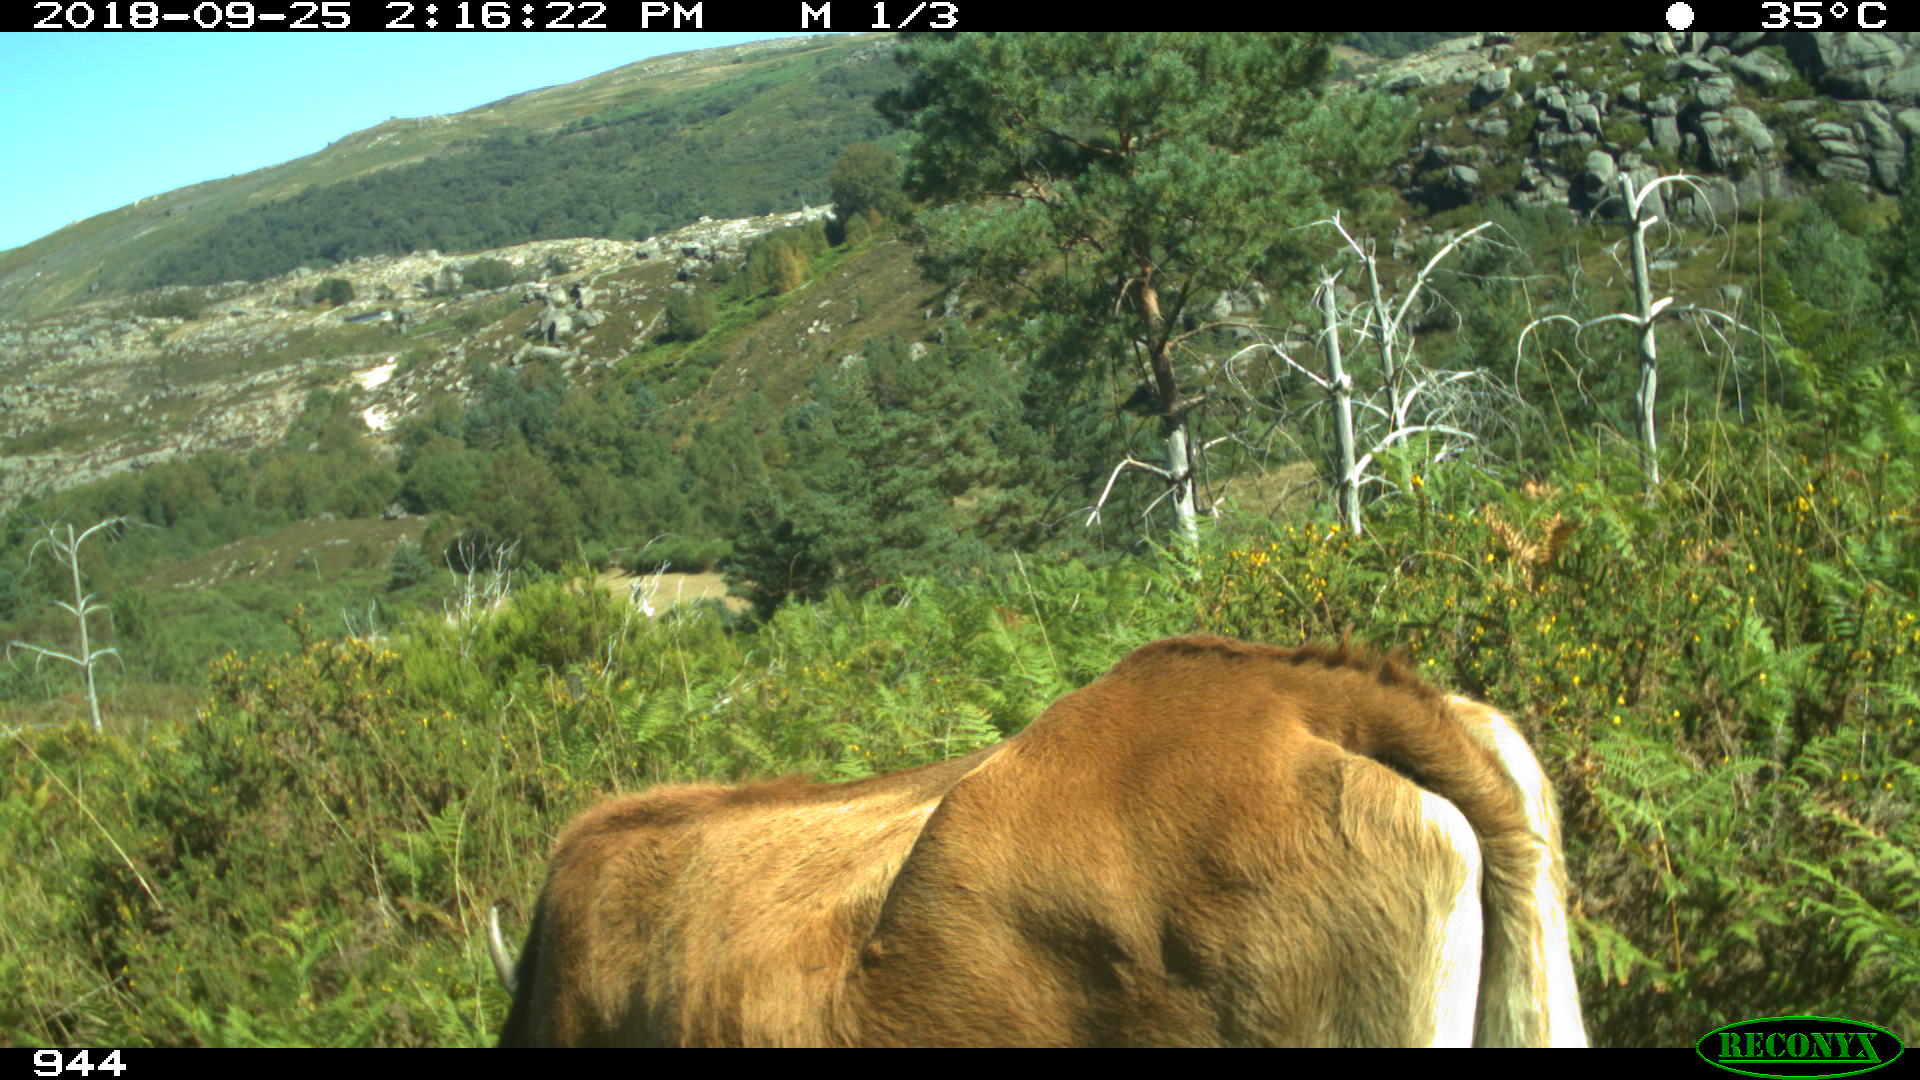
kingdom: Animalia
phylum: Chordata
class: Mammalia
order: Artiodactyla
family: Bovidae
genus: Bos
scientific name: Bos taurus
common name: Domesticated cattle
